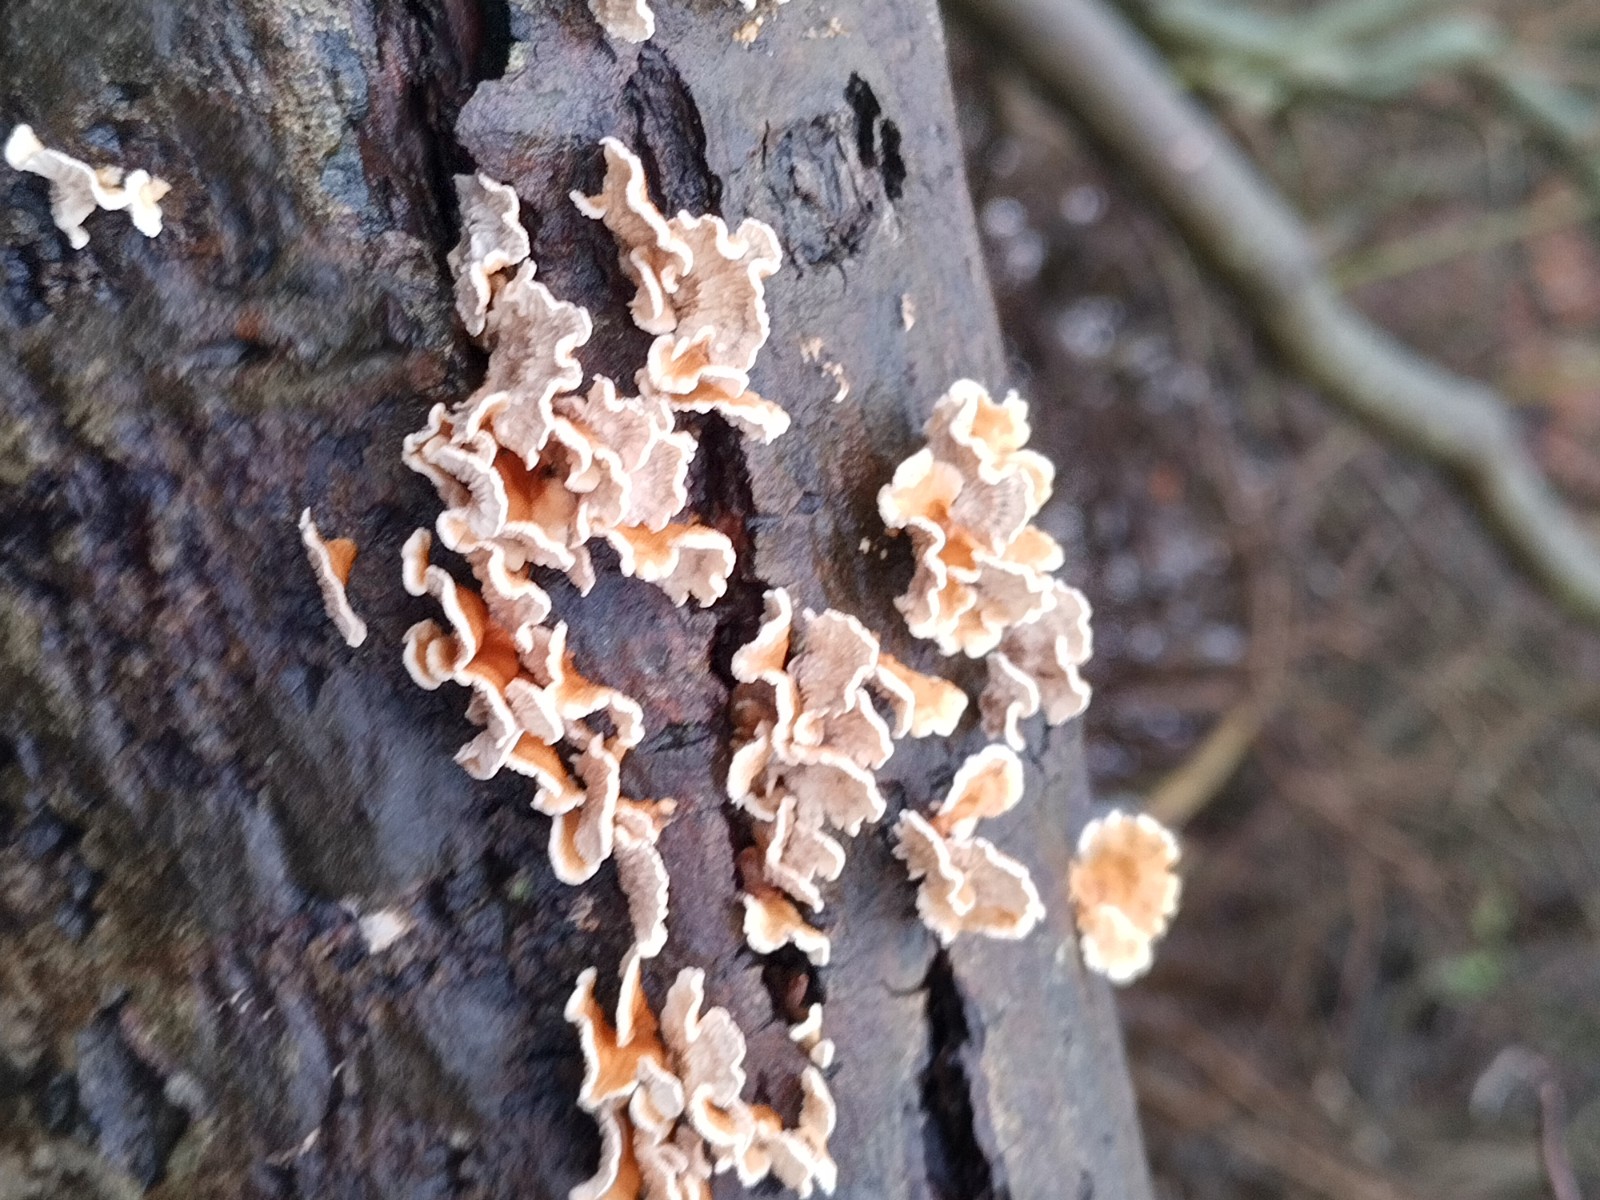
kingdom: Fungi
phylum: Basidiomycota
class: Agaricomycetes
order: Amylocorticiales
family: Amylocorticiaceae
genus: Plicaturopsis
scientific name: Plicaturopsis crispa
